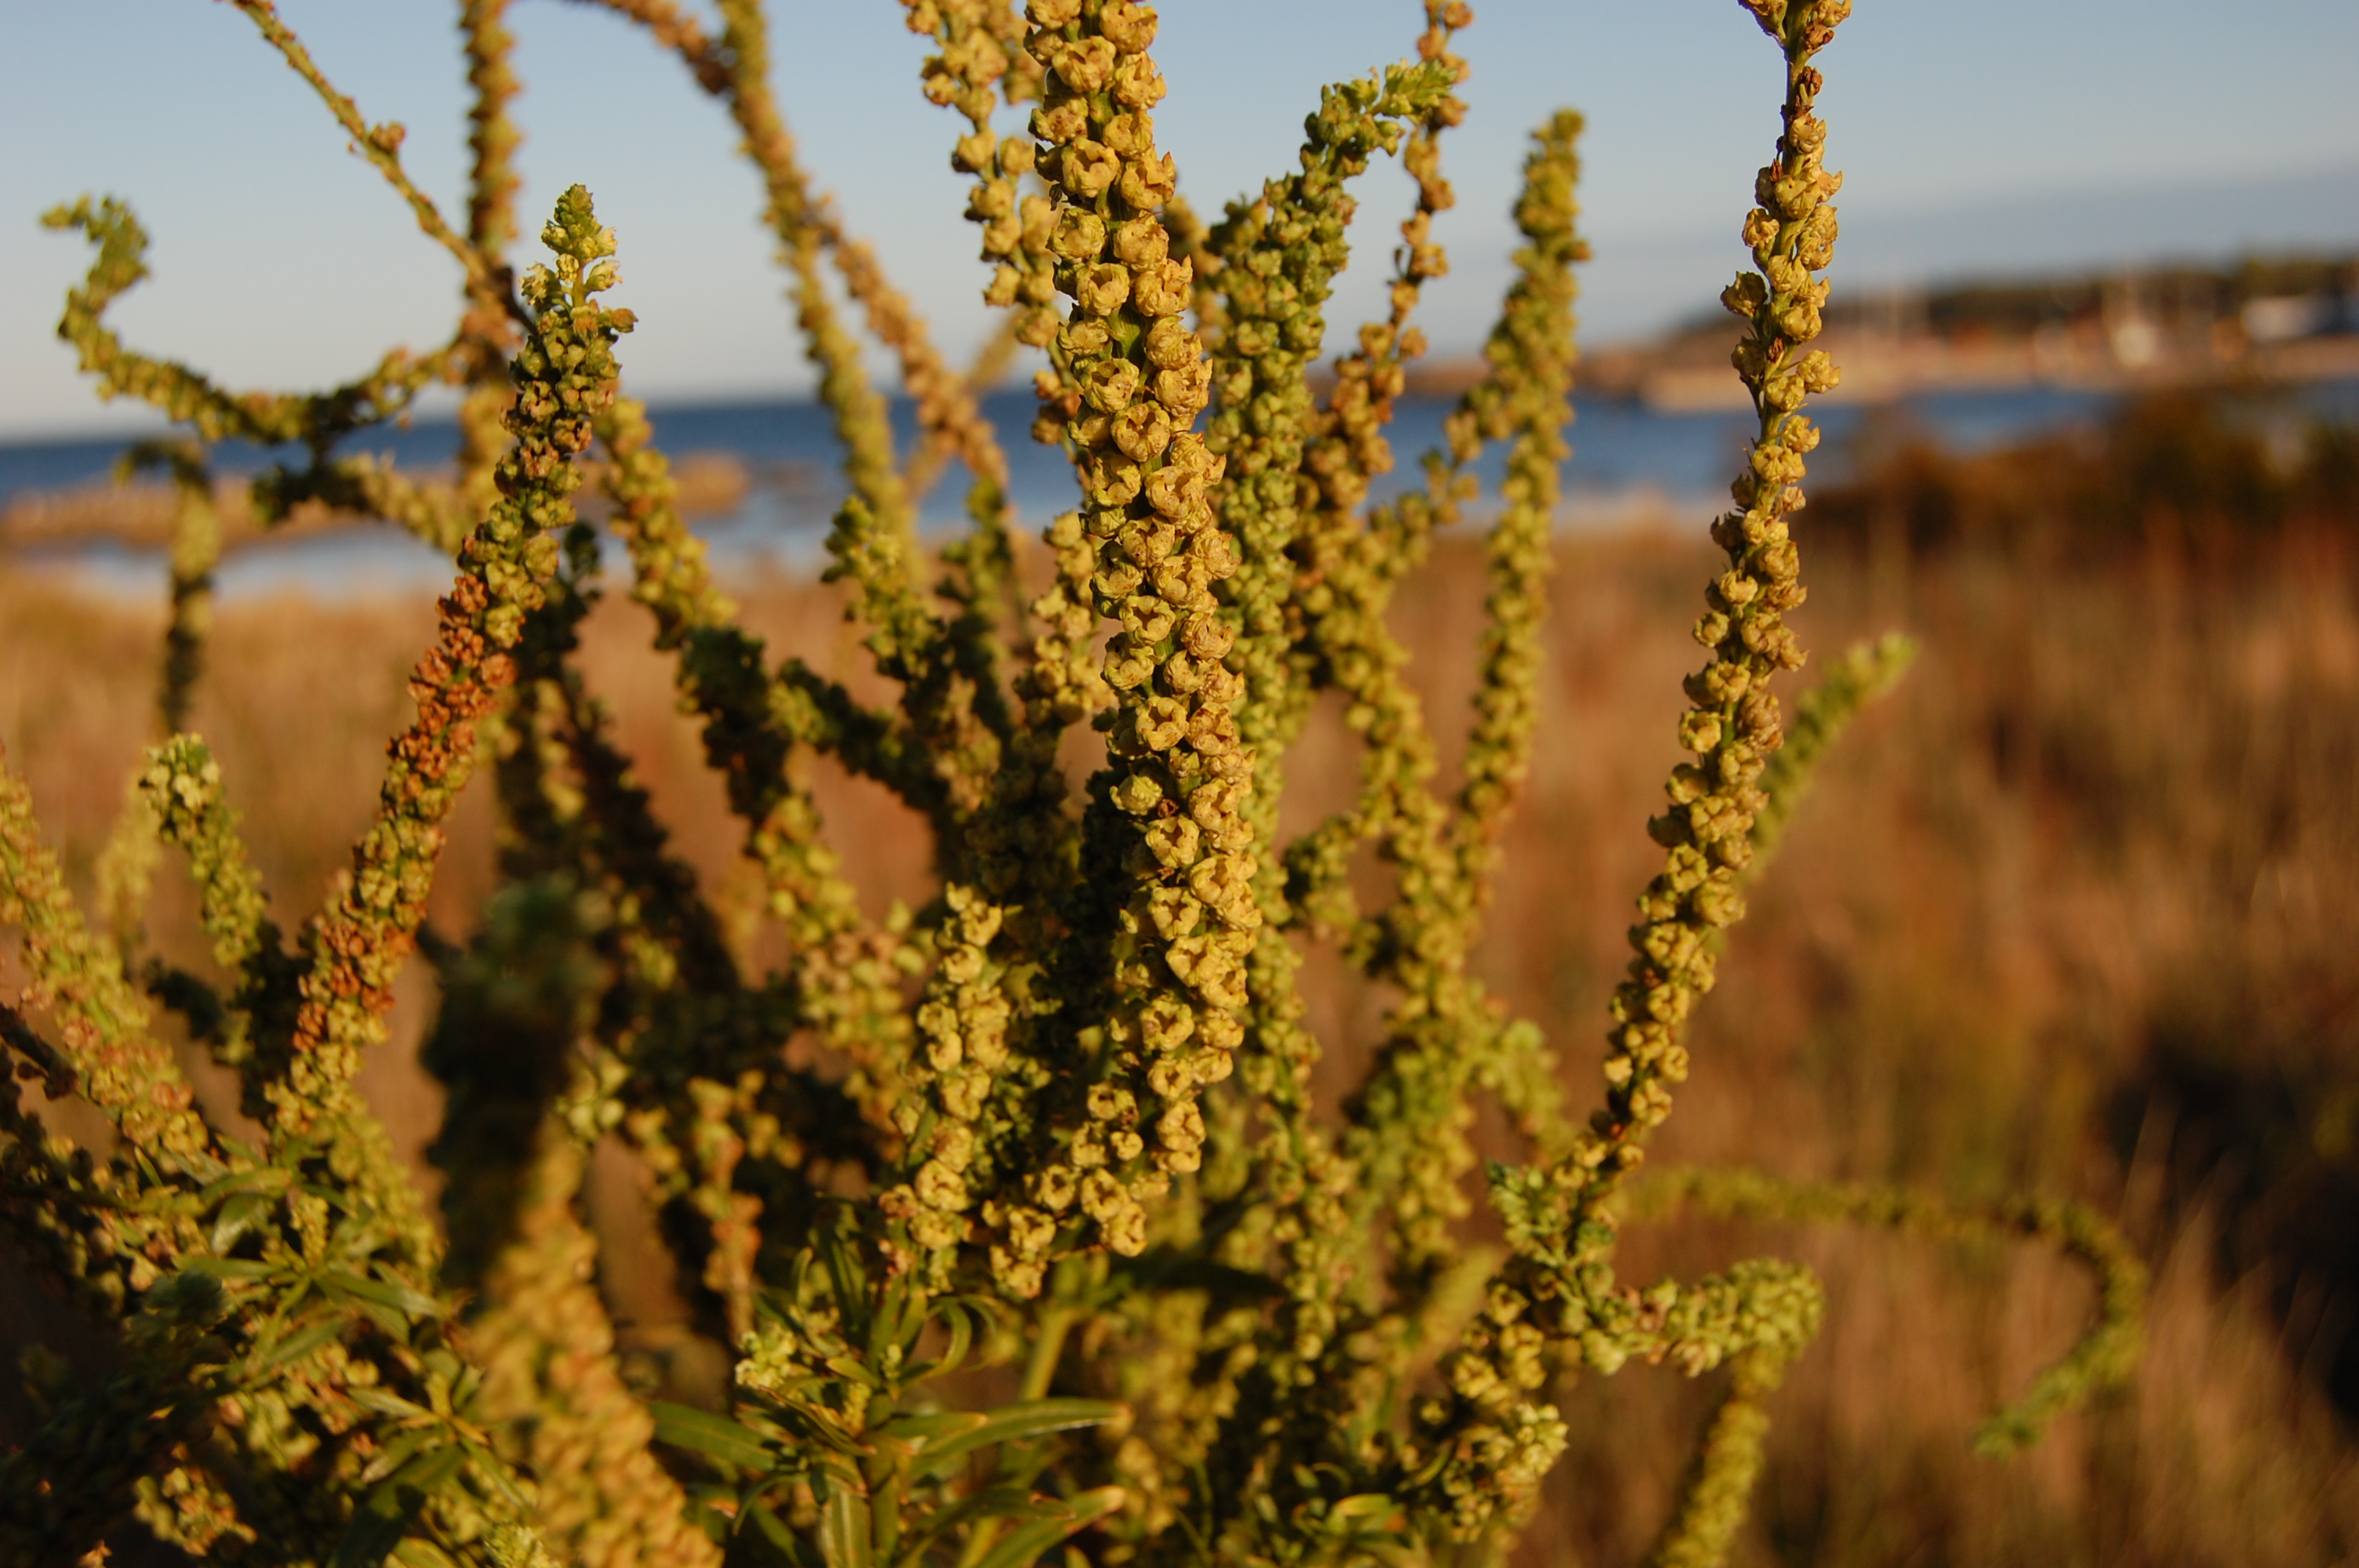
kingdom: Plantae
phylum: Tracheophyta
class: Magnoliopsida
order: Brassicales
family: Resedaceae
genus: Reseda
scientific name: Reseda luteola
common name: Weld
